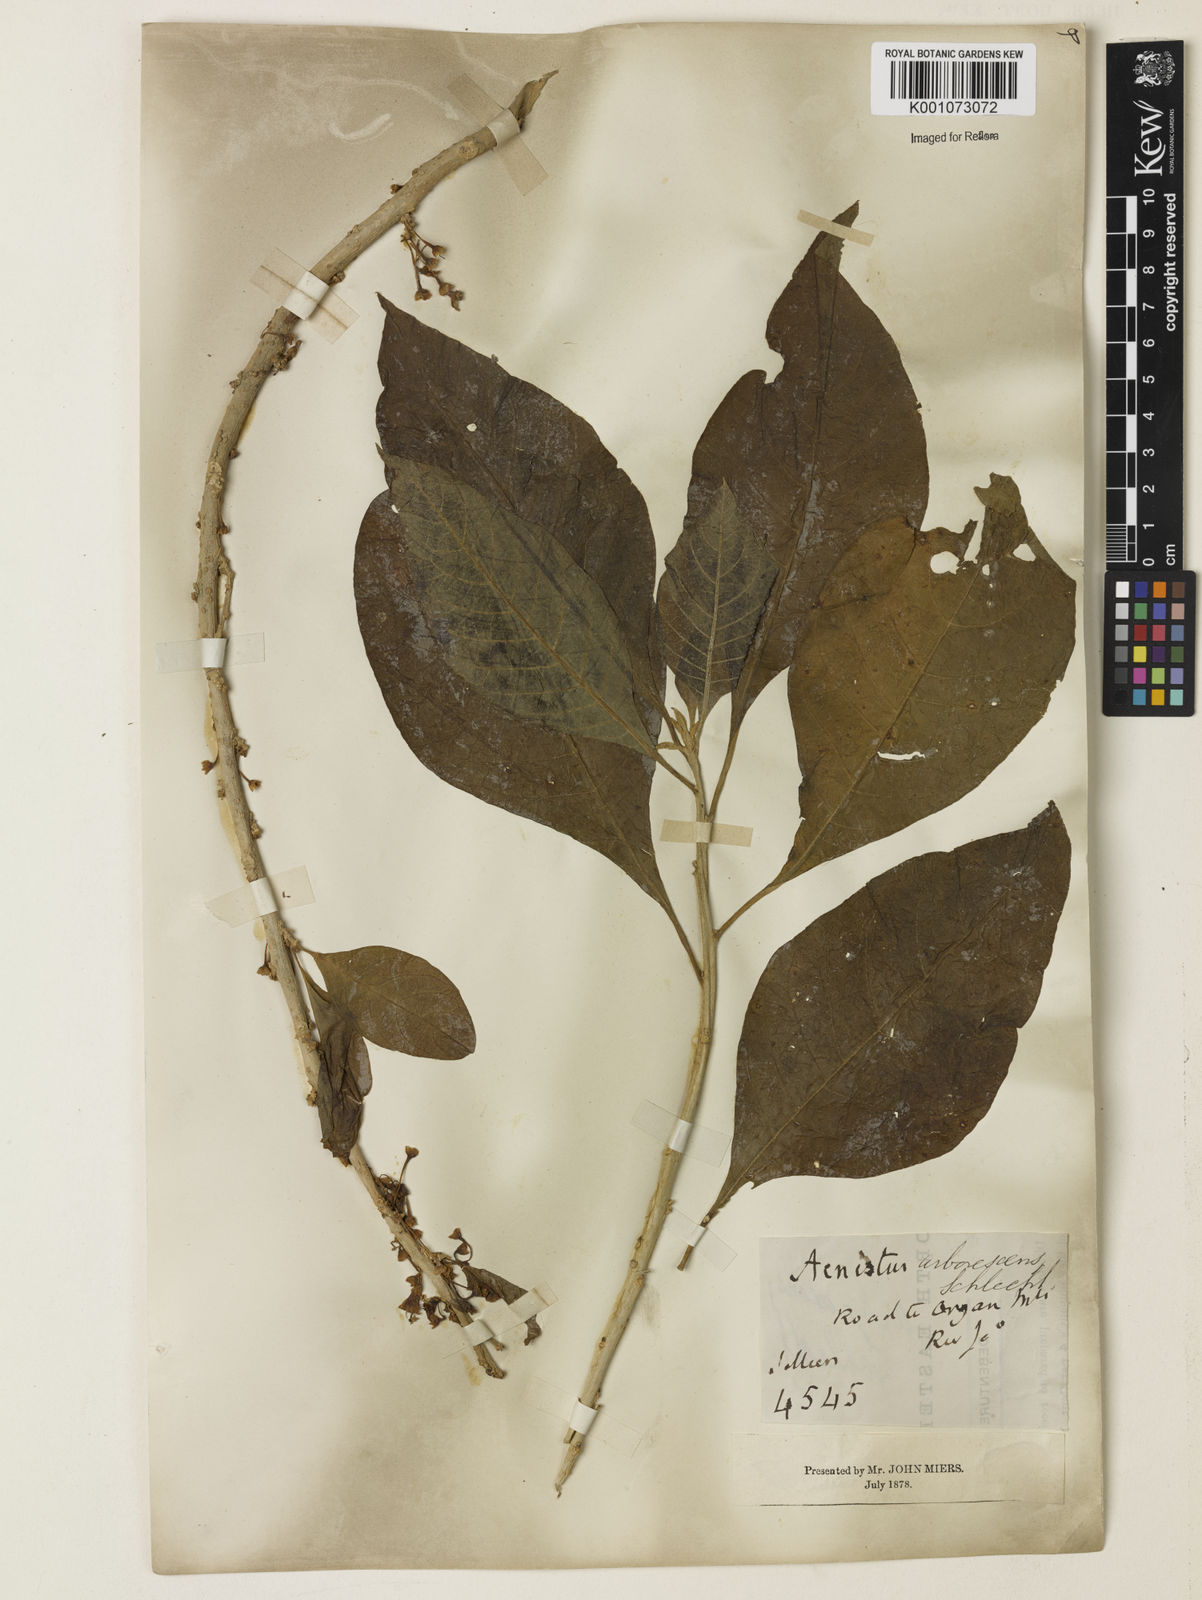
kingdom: Plantae
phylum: Tracheophyta
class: Magnoliopsida
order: Solanales
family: Solanaceae
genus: Iochroma
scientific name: Iochroma arborescens
